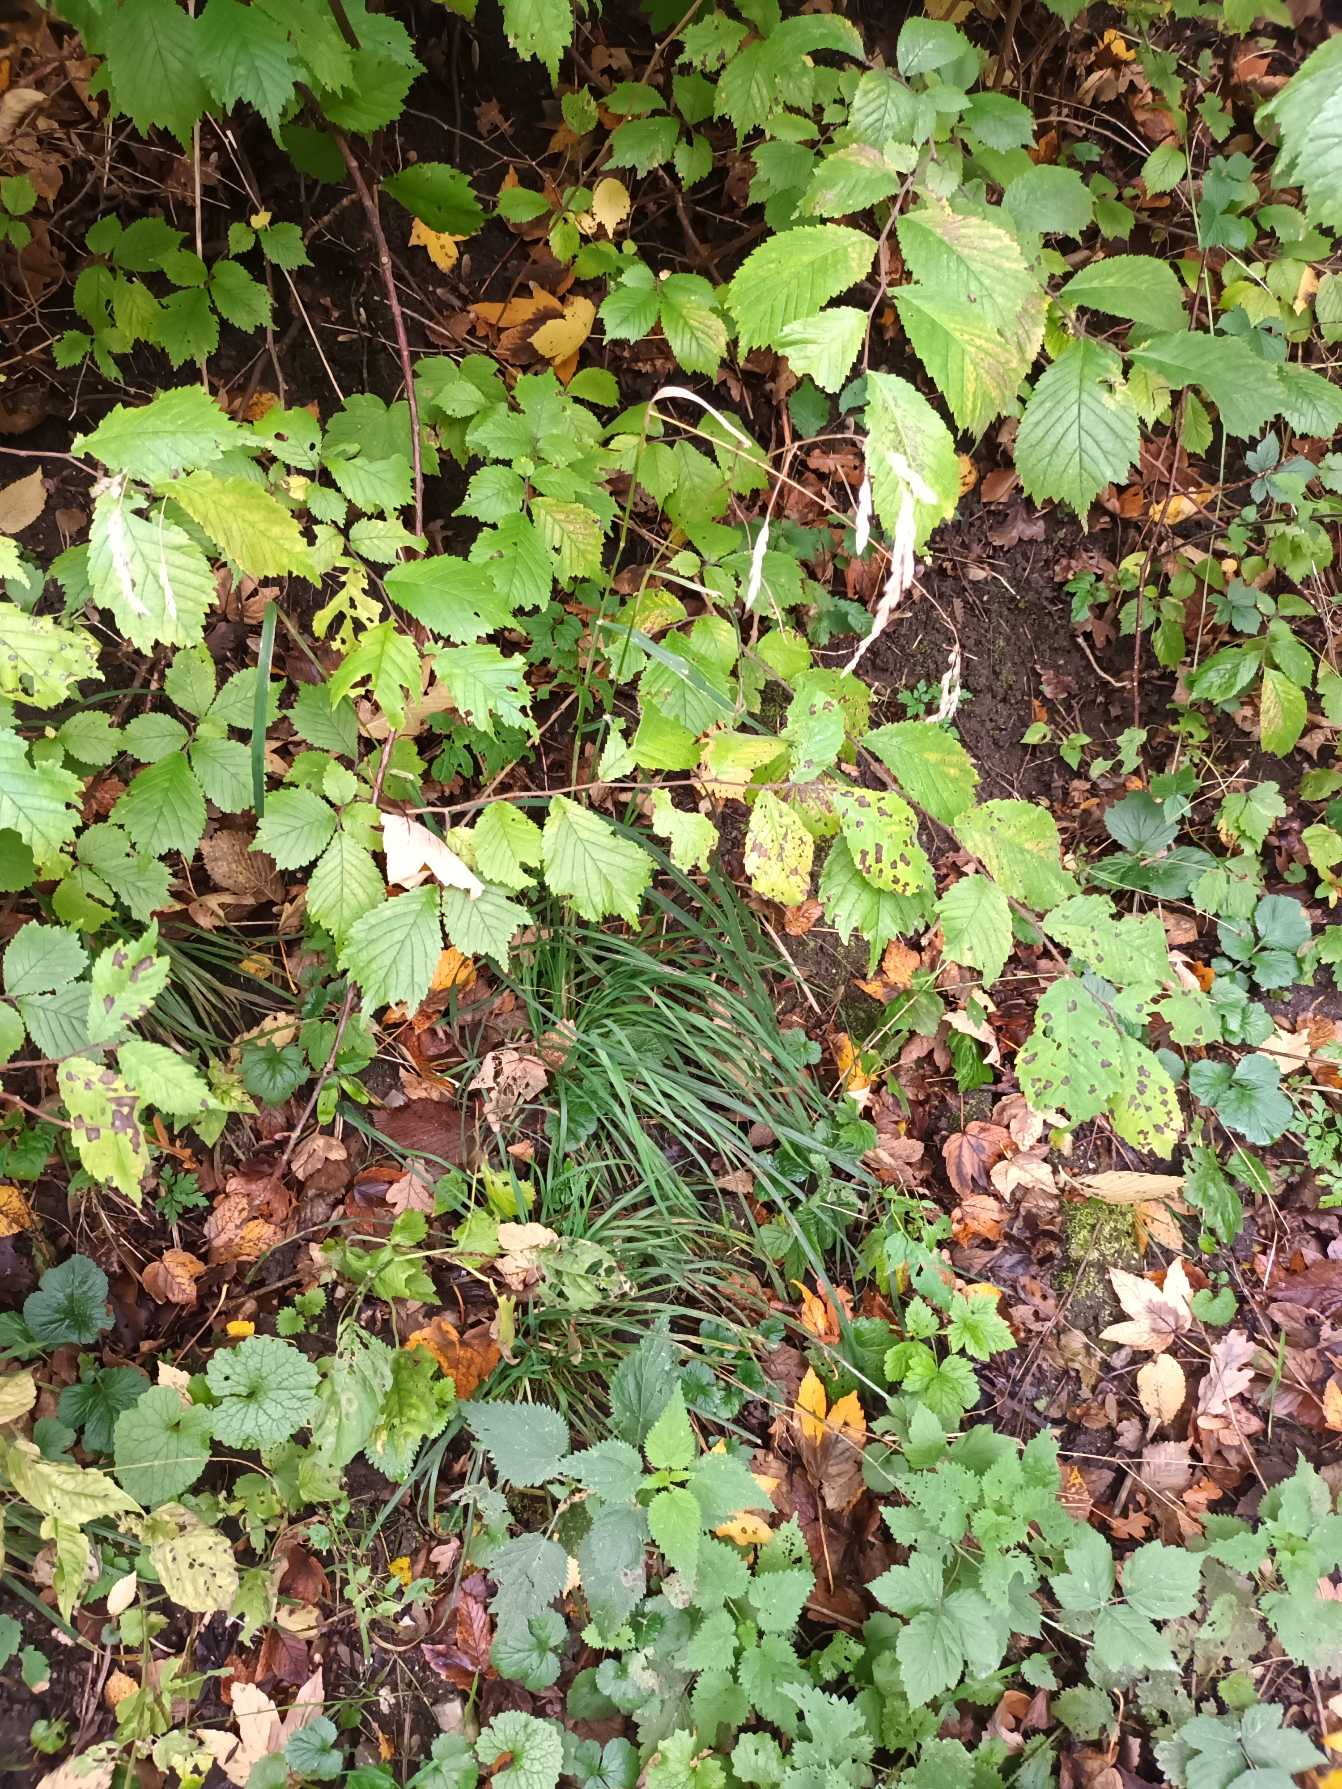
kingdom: Plantae
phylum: Tracheophyta
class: Liliopsida
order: Poales
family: Poaceae
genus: Dactylis
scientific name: Dactylis glomerata
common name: Almindelig hundegræs
